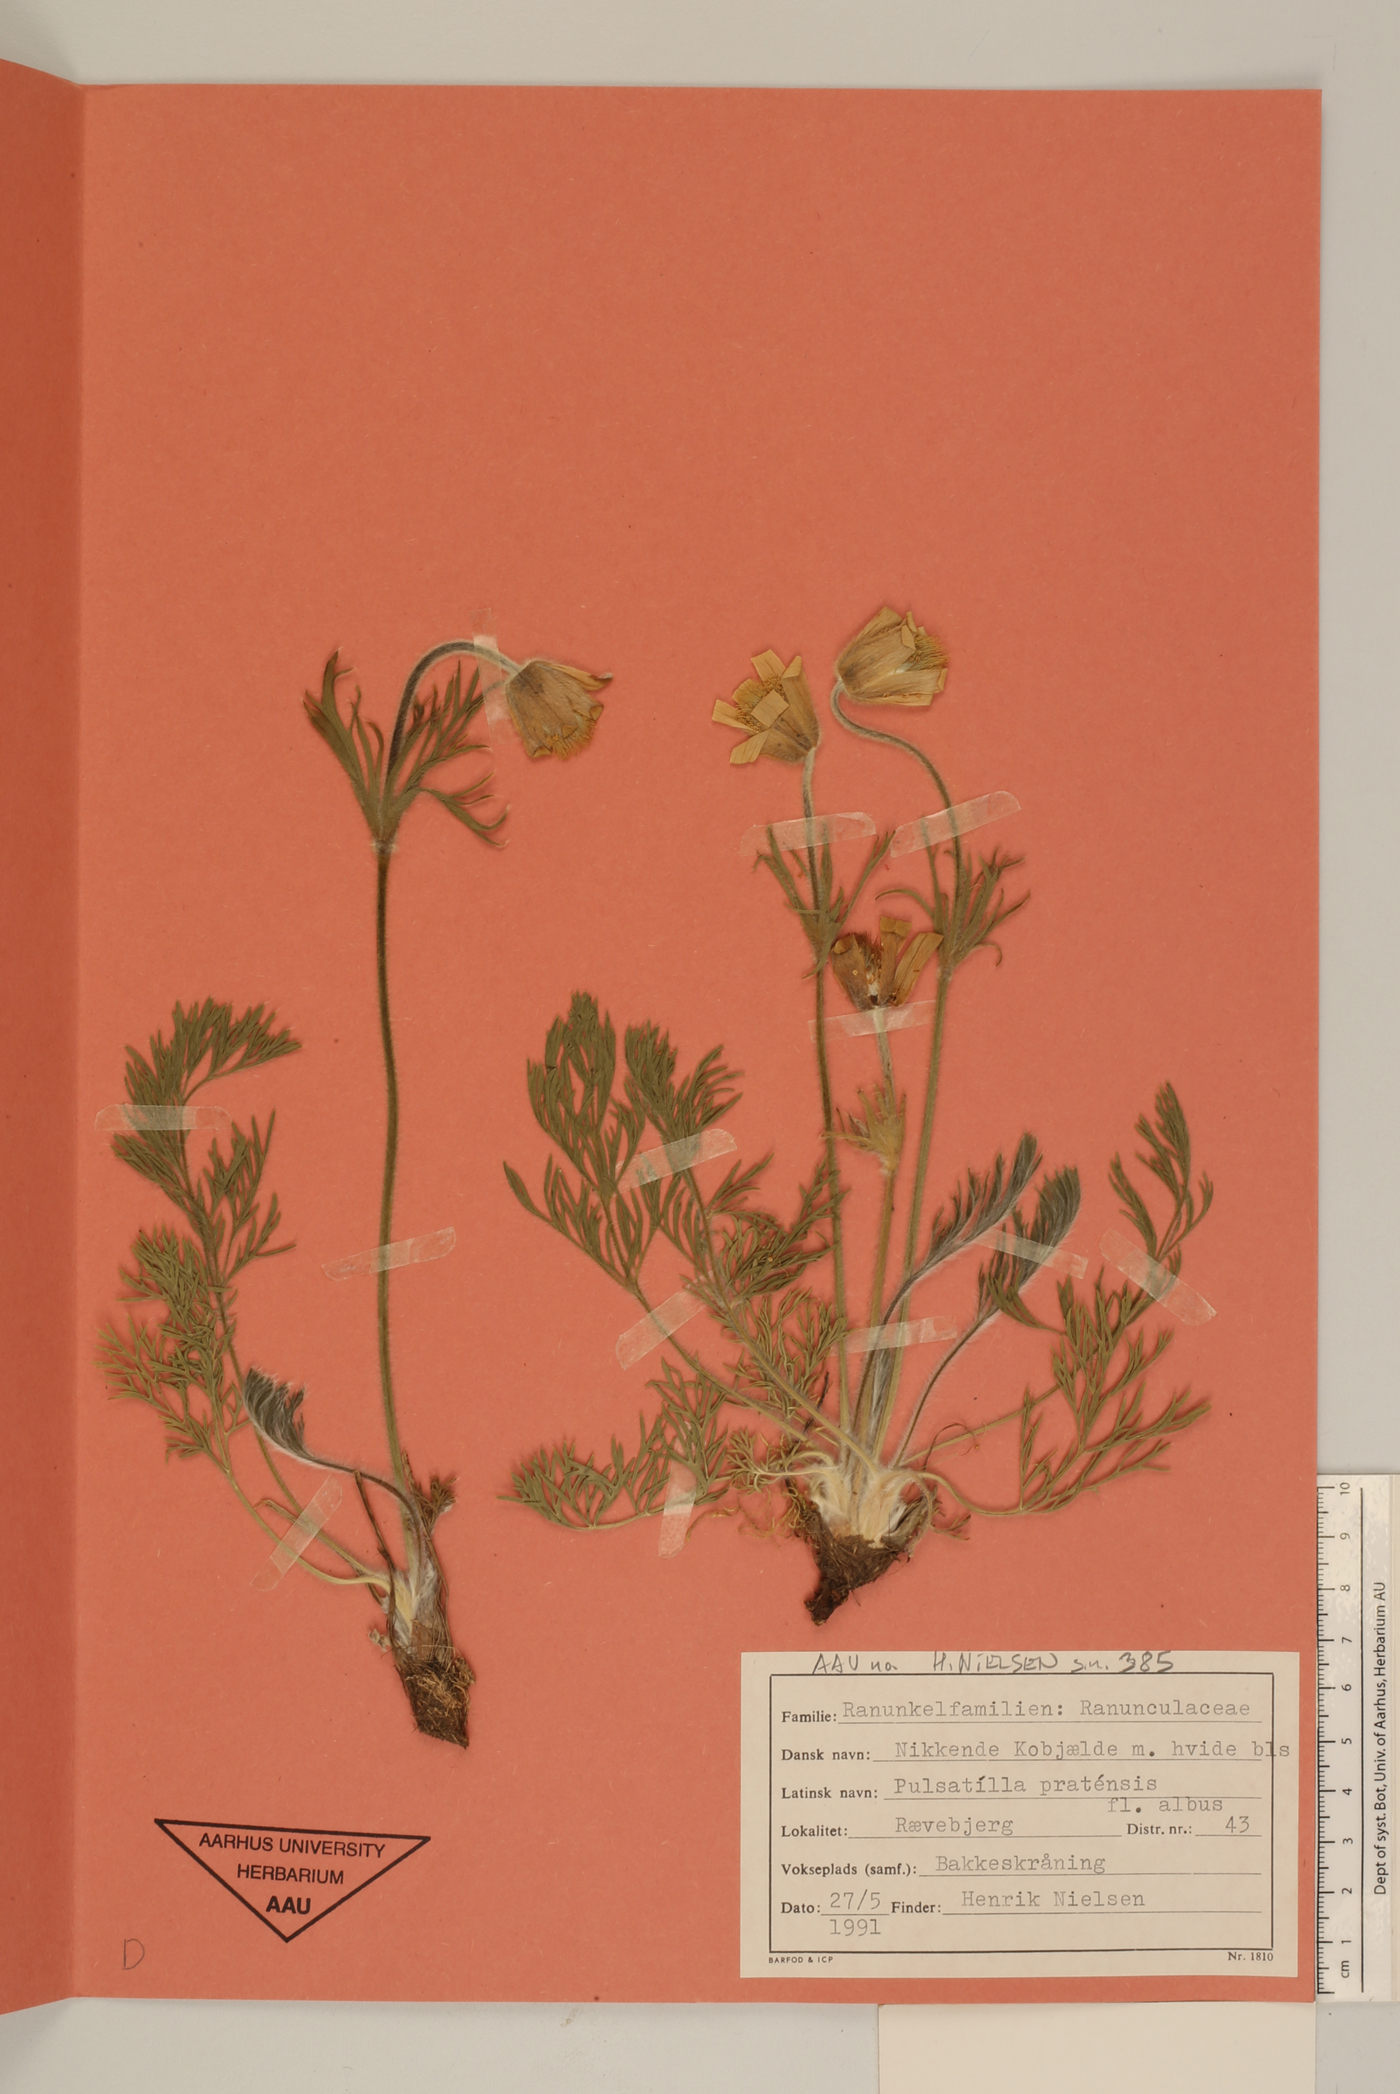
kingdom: Plantae
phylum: Tracheophyta
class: Magnoliopsida
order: Ranunculales
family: Ranunculaceae
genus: Pulsatilla
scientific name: Pulsatilla pratensis
